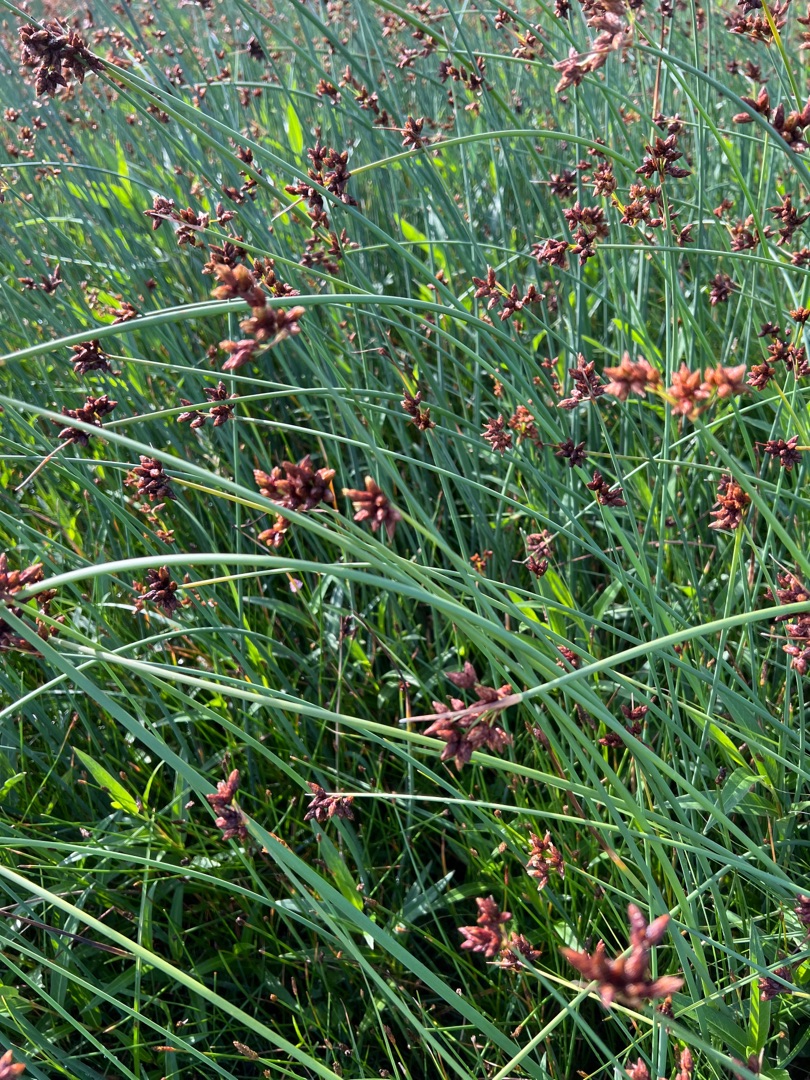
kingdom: Plantae
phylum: Tracheophyta
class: Liliopsida
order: Poales
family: Cyperaceae
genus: Schoenoplectus
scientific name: Schoenoplectus tabernaemontani
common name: Blågrøn kogleaks
